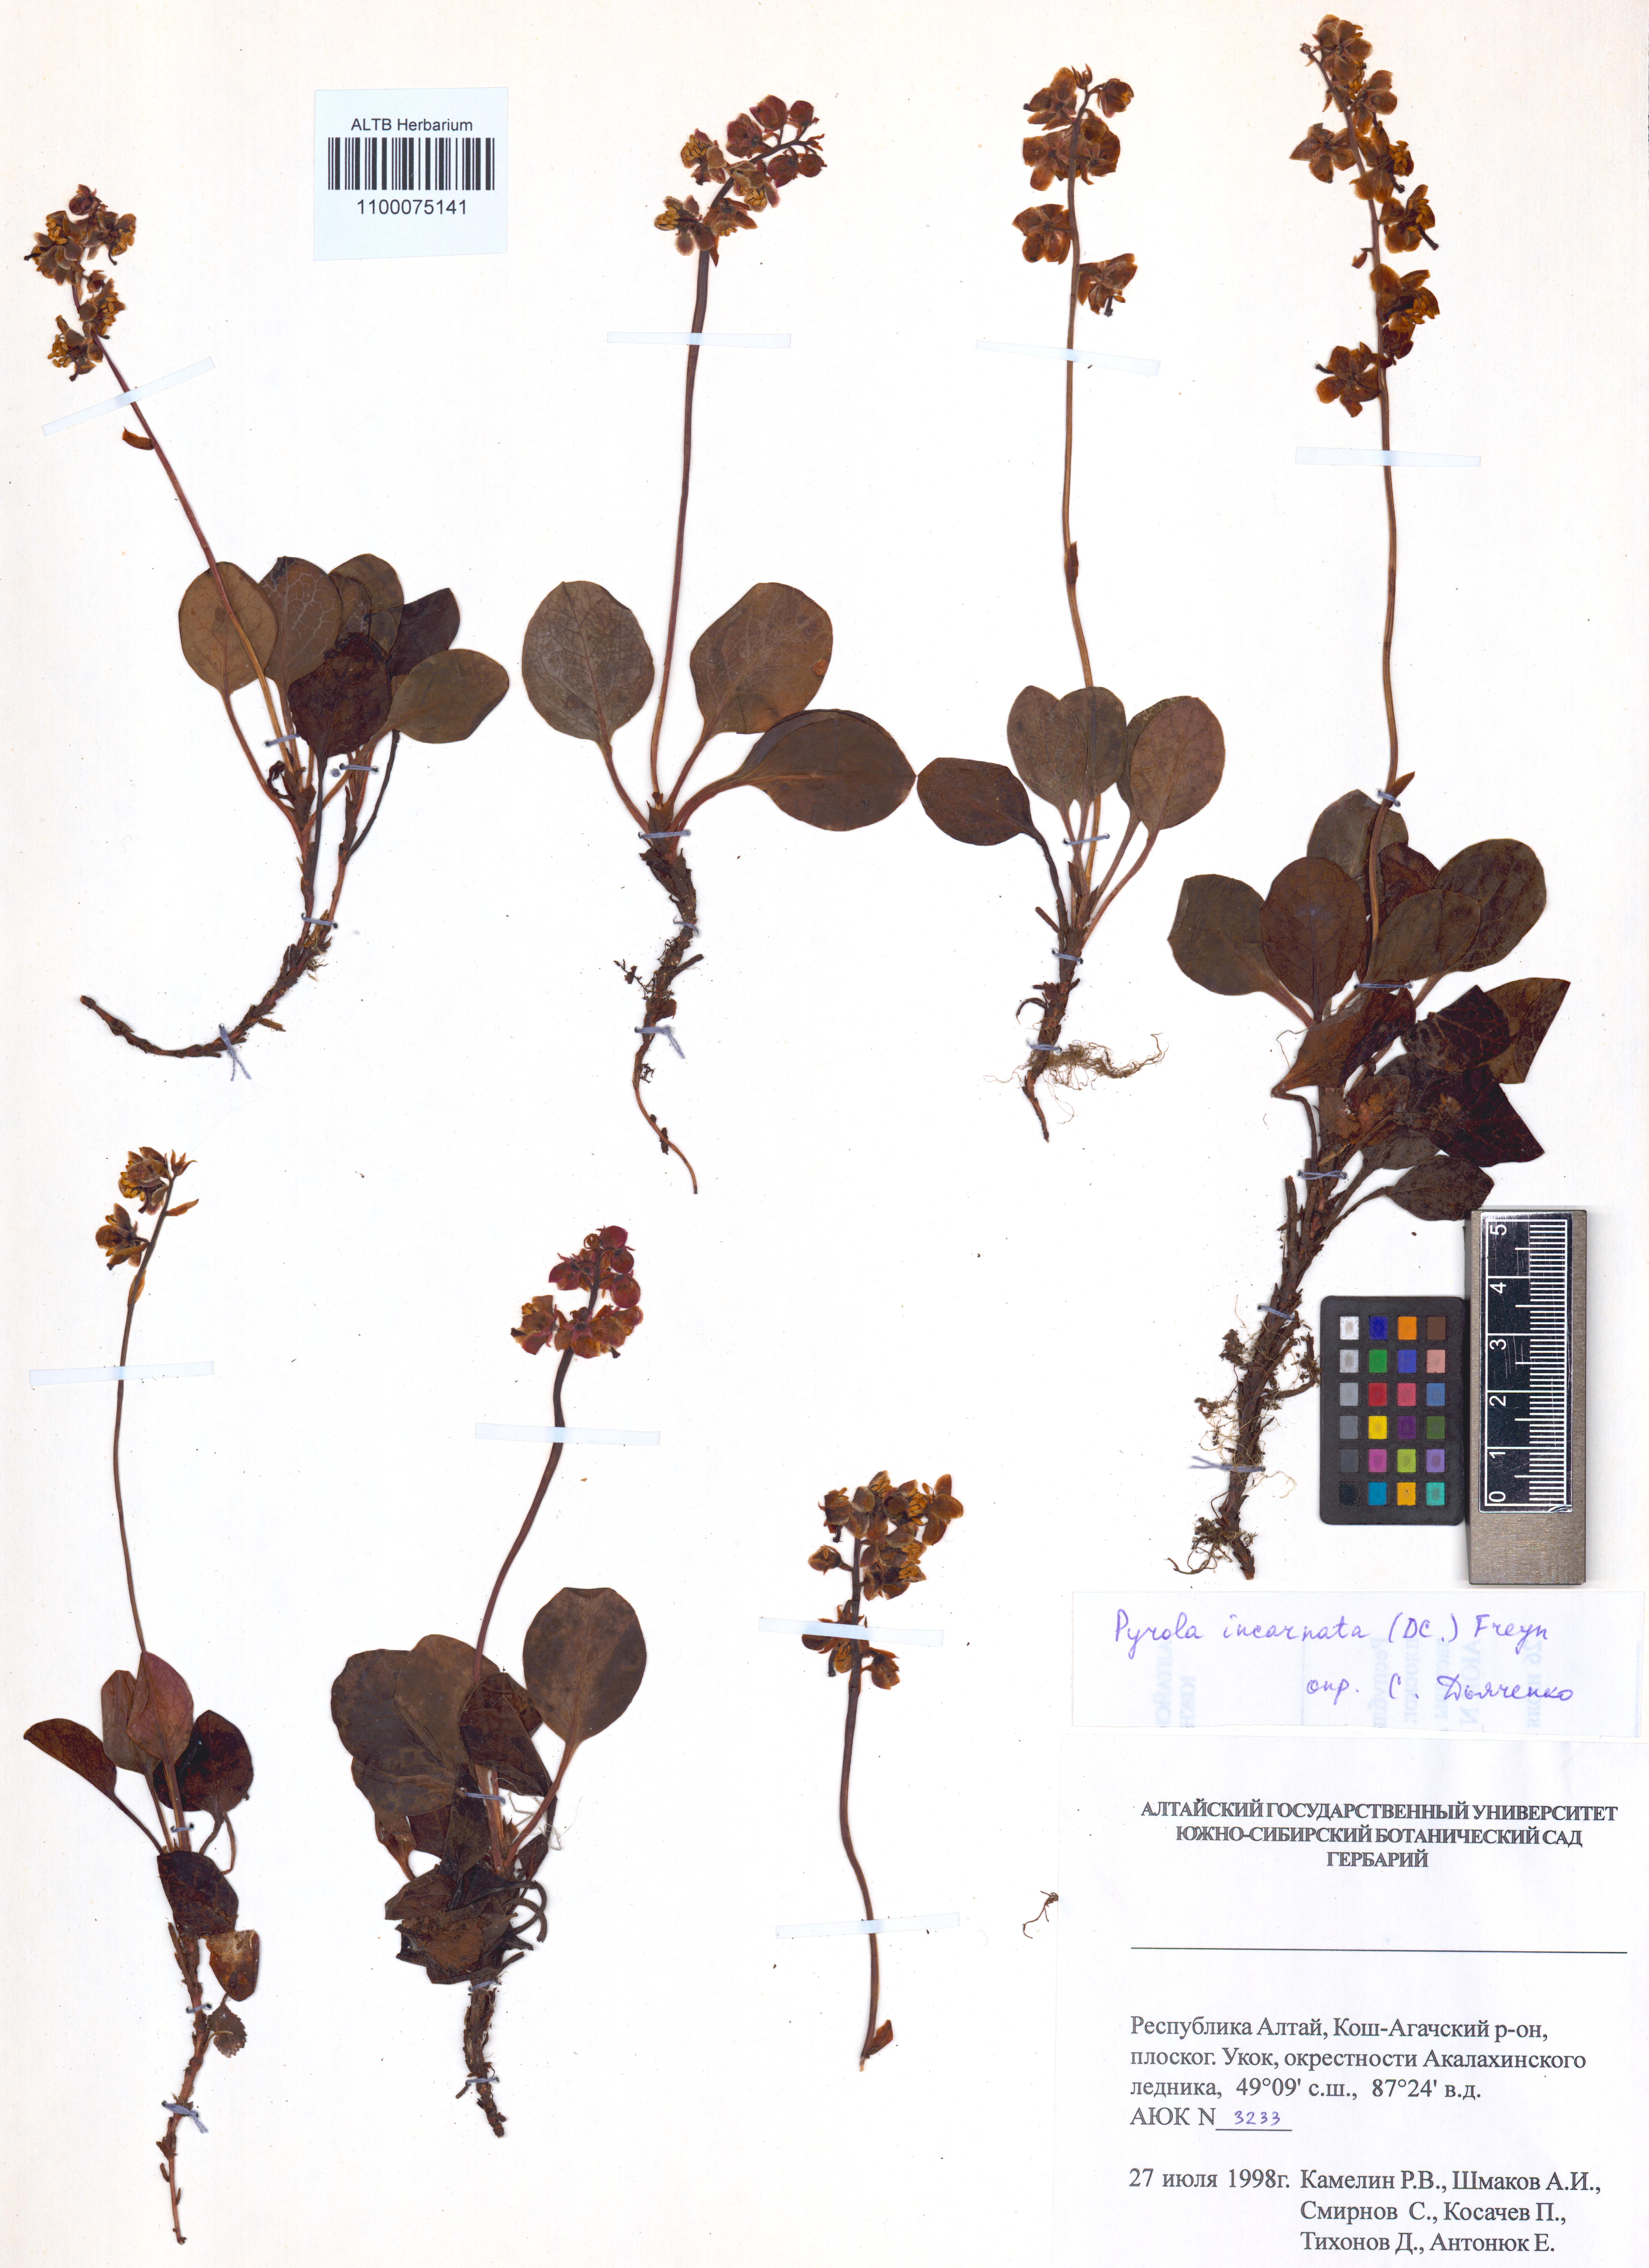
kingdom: Plantae
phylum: Tracheophyta
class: Magnoliopsida
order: Ericales
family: Ericaceae
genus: Pyrola
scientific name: Pyrola asarifolia
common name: Bog wintergreen
